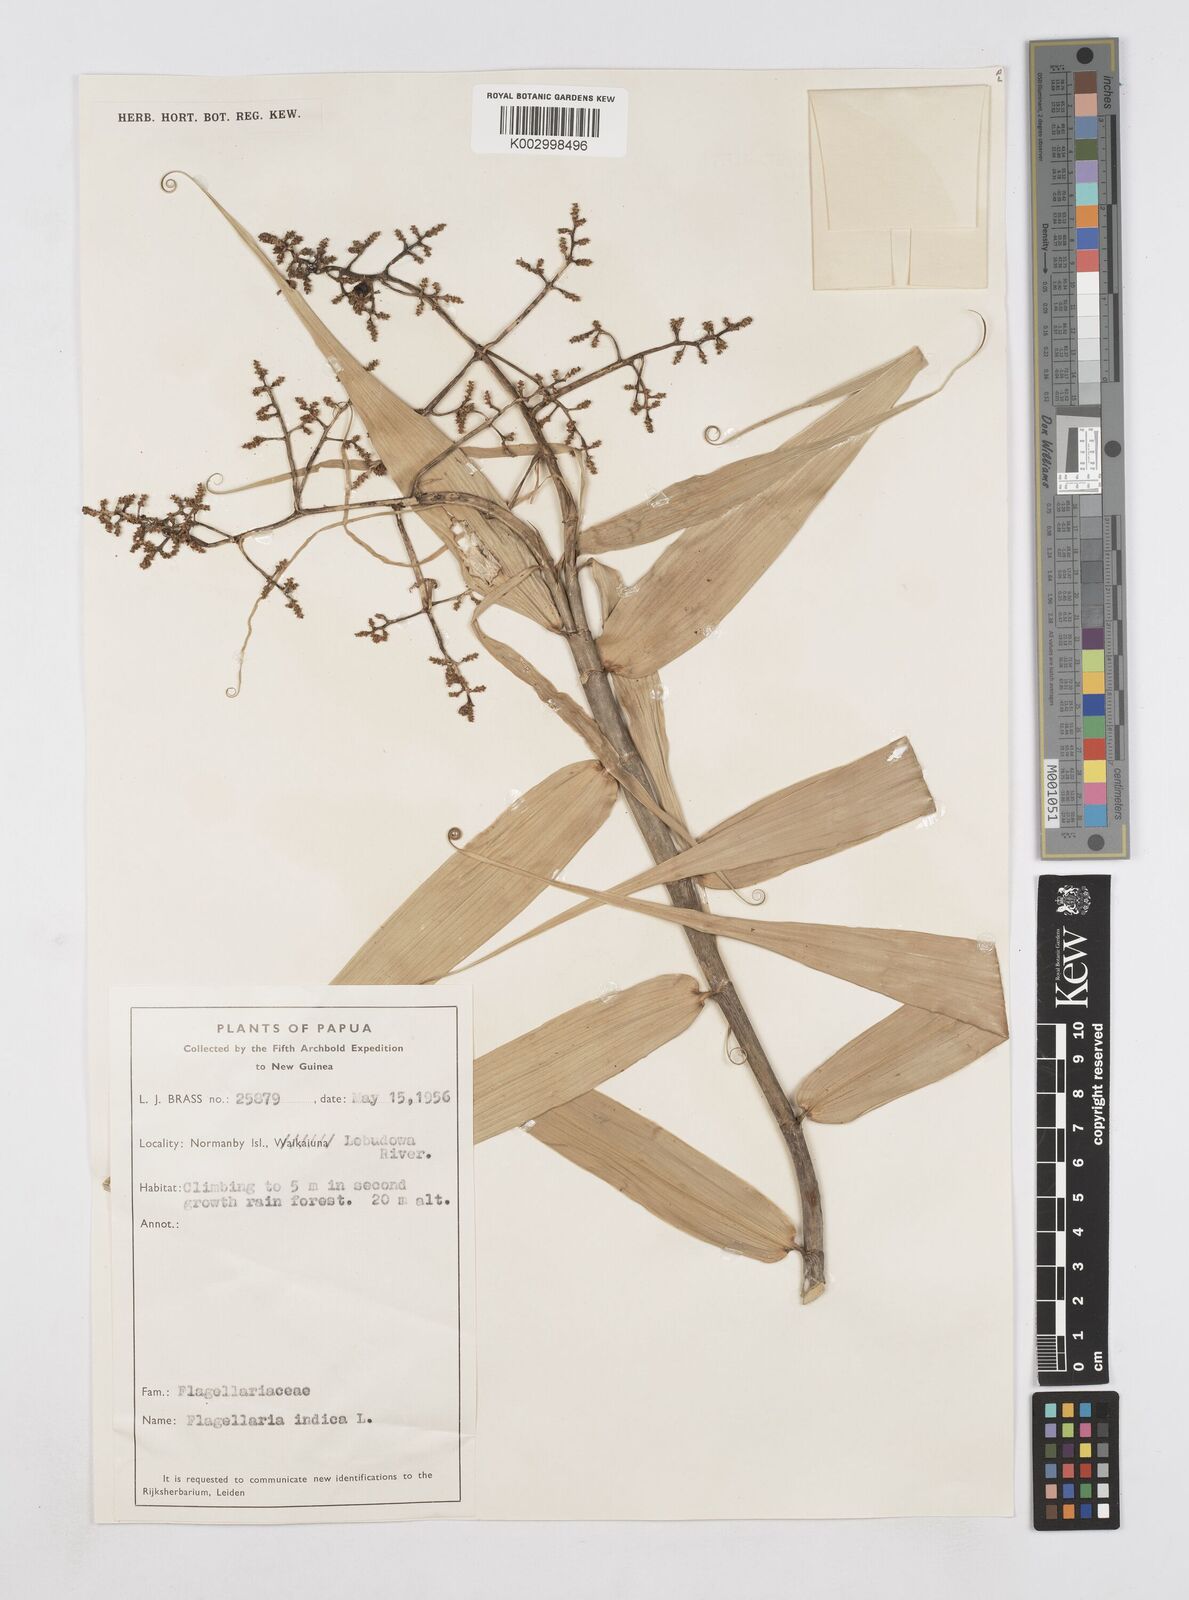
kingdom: Plantae
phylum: Tracheophyta
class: Liliopsida
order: Poales
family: Flagellariaceae
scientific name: Flagellariaceae
